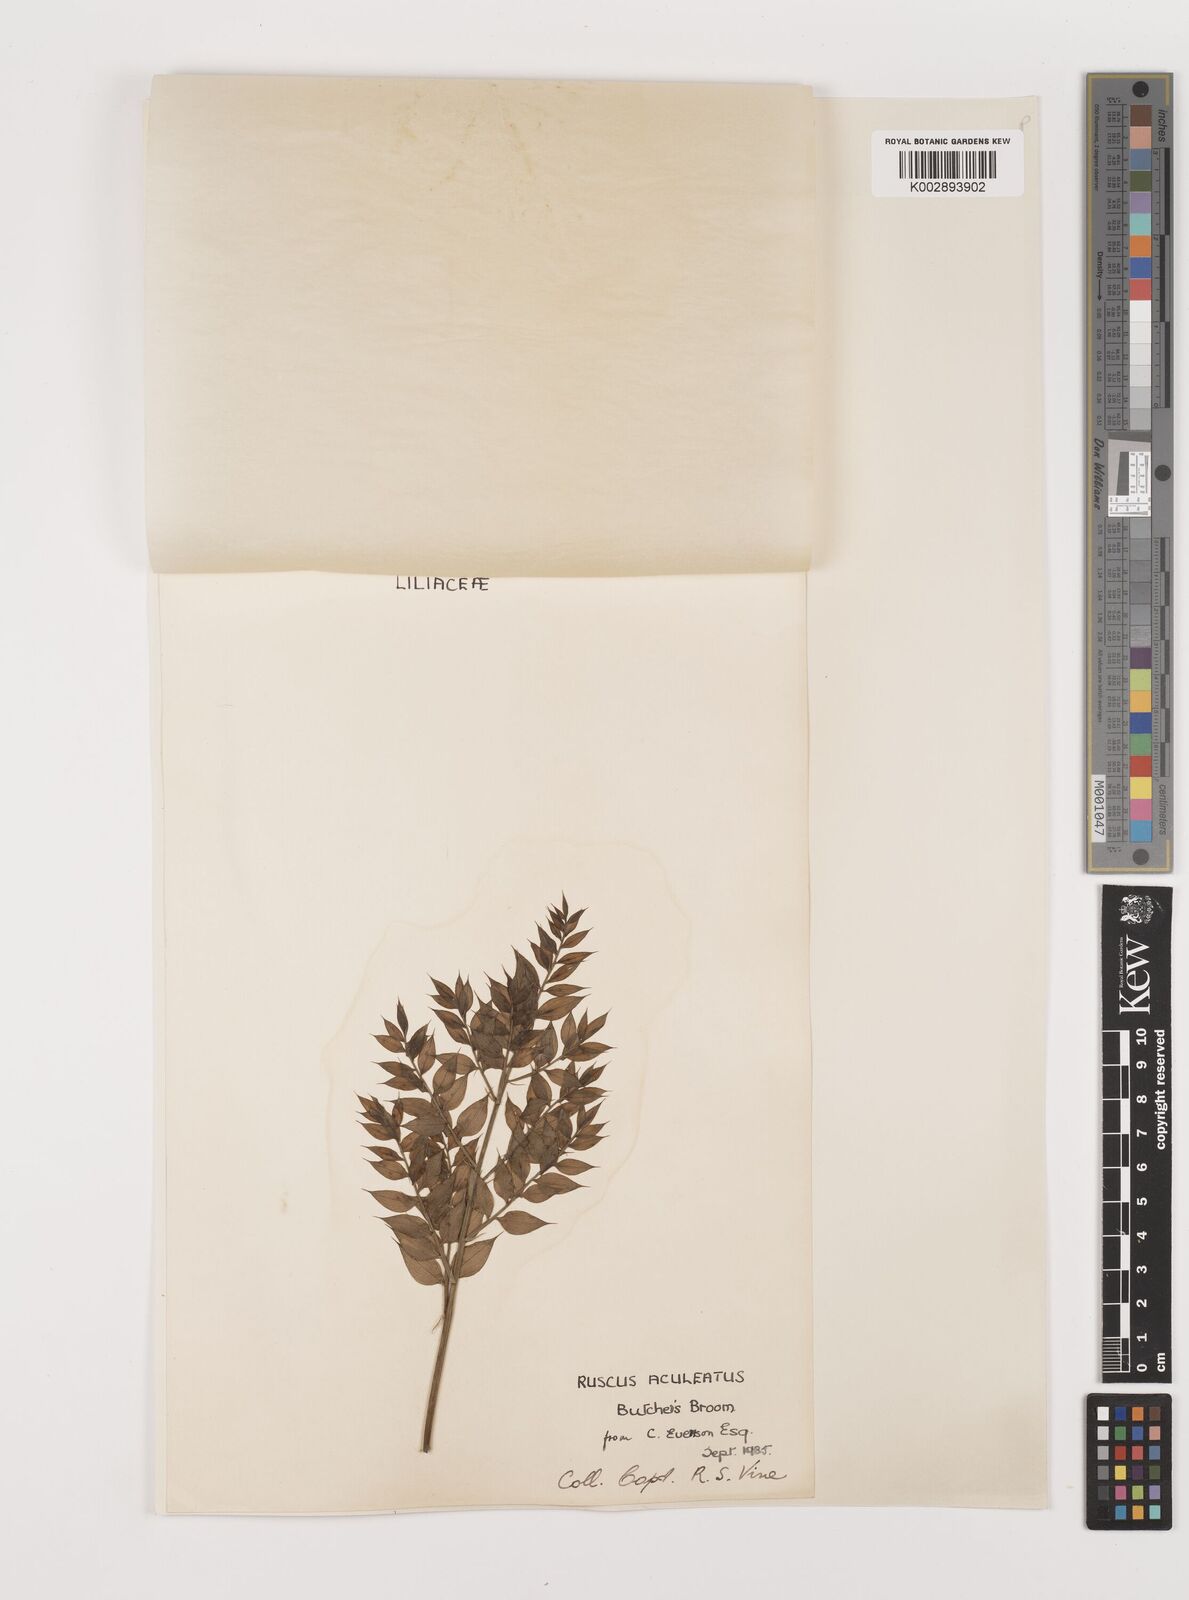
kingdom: Plantae
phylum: Tracheophyta
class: Liliopsida
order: Asparagales
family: Asparagaceae
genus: Ruscus
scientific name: Ruscus aculeatus
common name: Butcher's-broom
